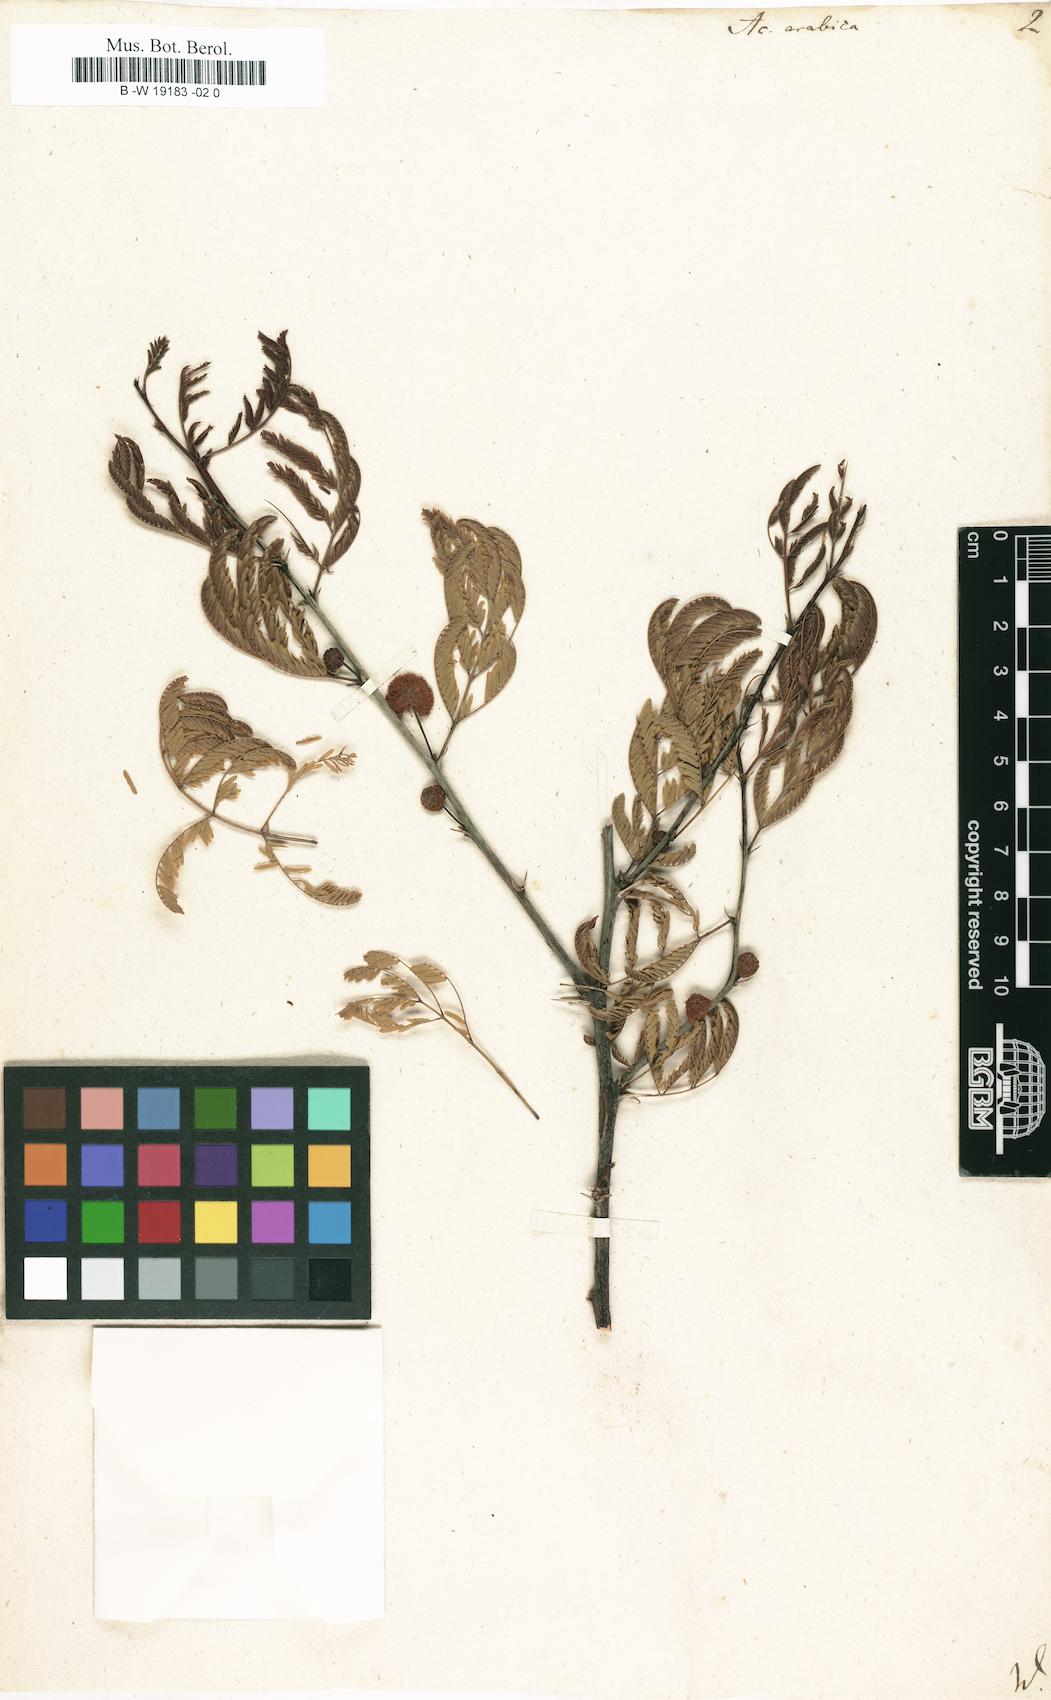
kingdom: Plantae
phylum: Tracheophyta
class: Magnoliopsida
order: Fabales
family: Fabaceae
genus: Vachellia
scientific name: Vachellia nilotica
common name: Arabic gumtree
